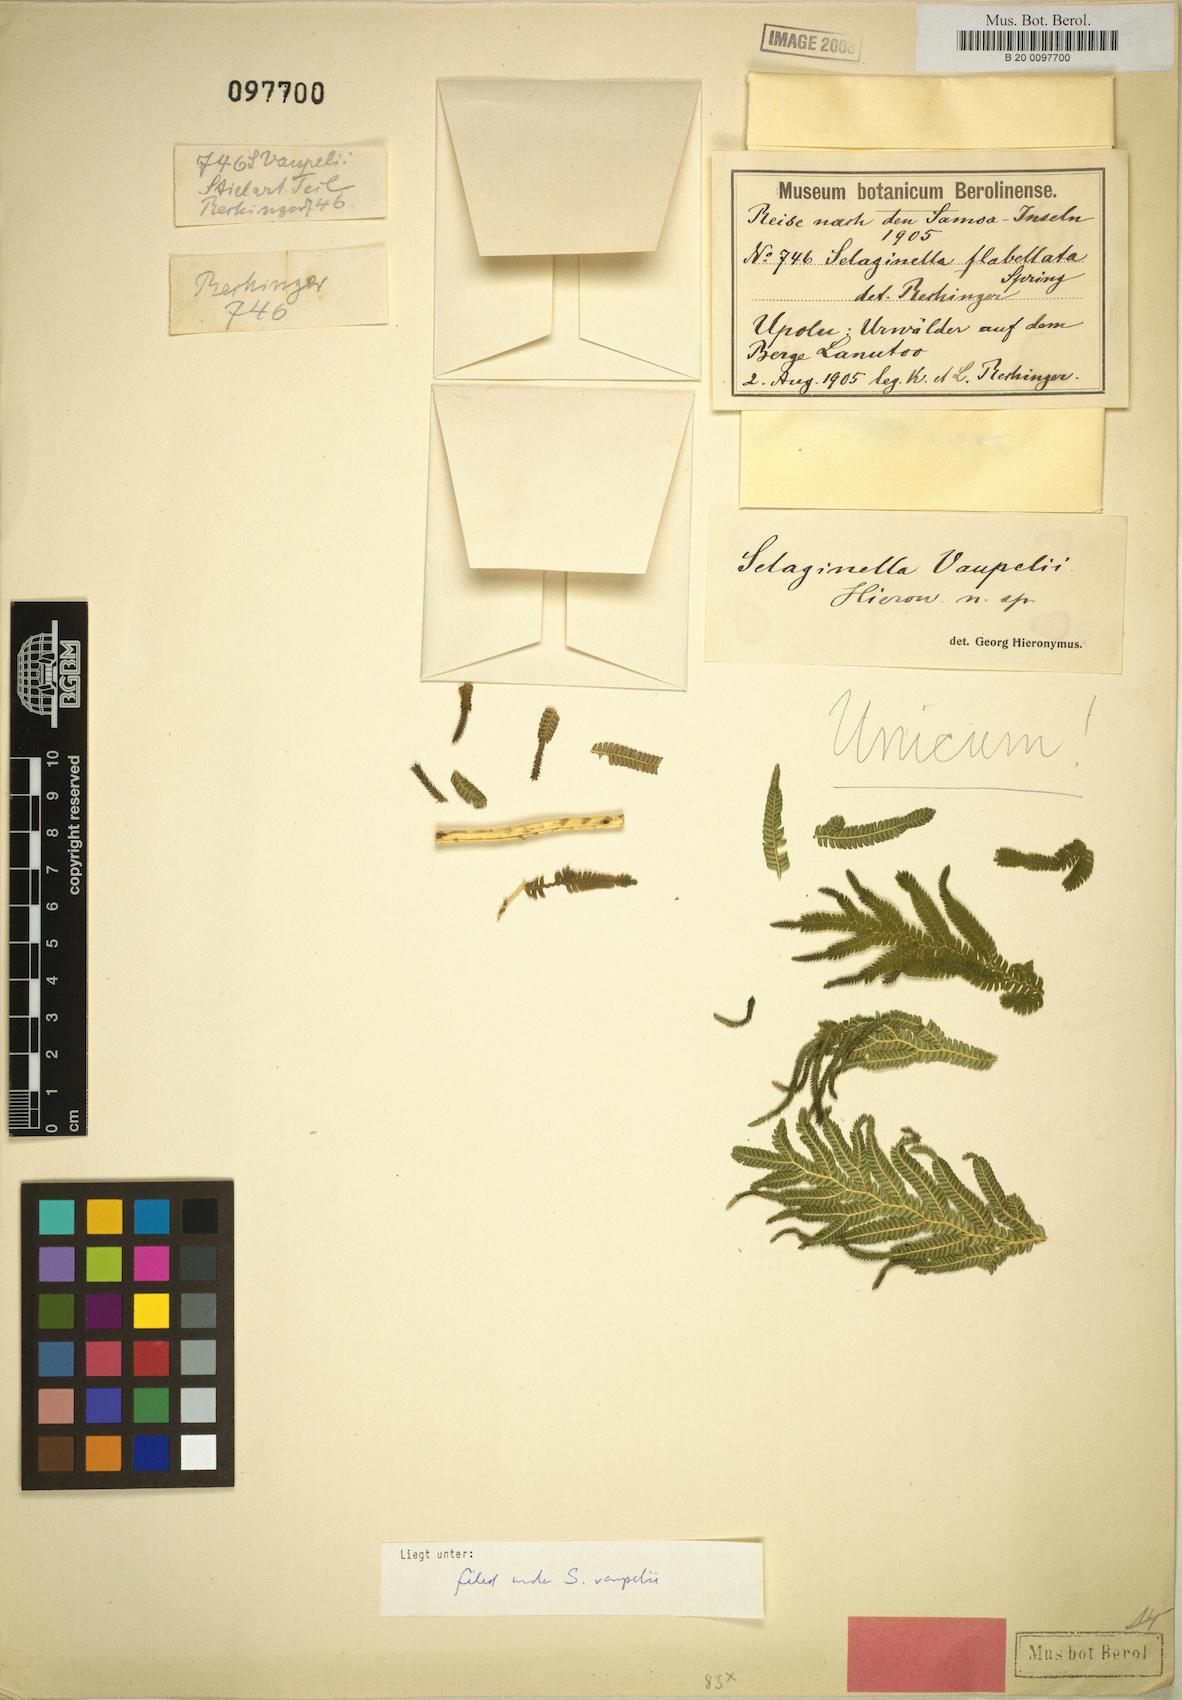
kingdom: Plantae
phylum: Tracheophyta
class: Lycopodiopsida
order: Selaginellales
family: Selaginellaceae
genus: Selaginella
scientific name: Selaginella hochreutineri
